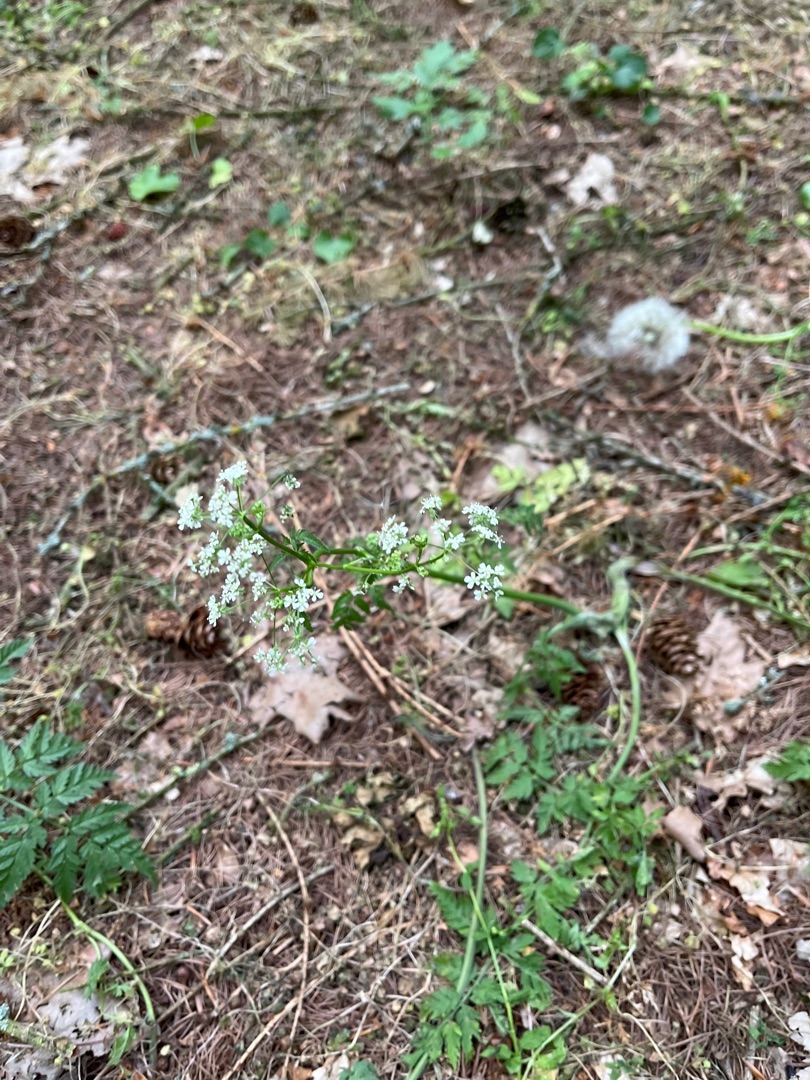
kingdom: Plantae
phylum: Tracheophyta
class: Magnoliopsida
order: Apiales
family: Apiaceae
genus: Anthriscus
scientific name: Anthriscus sylvestris
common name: Vild kørvel
